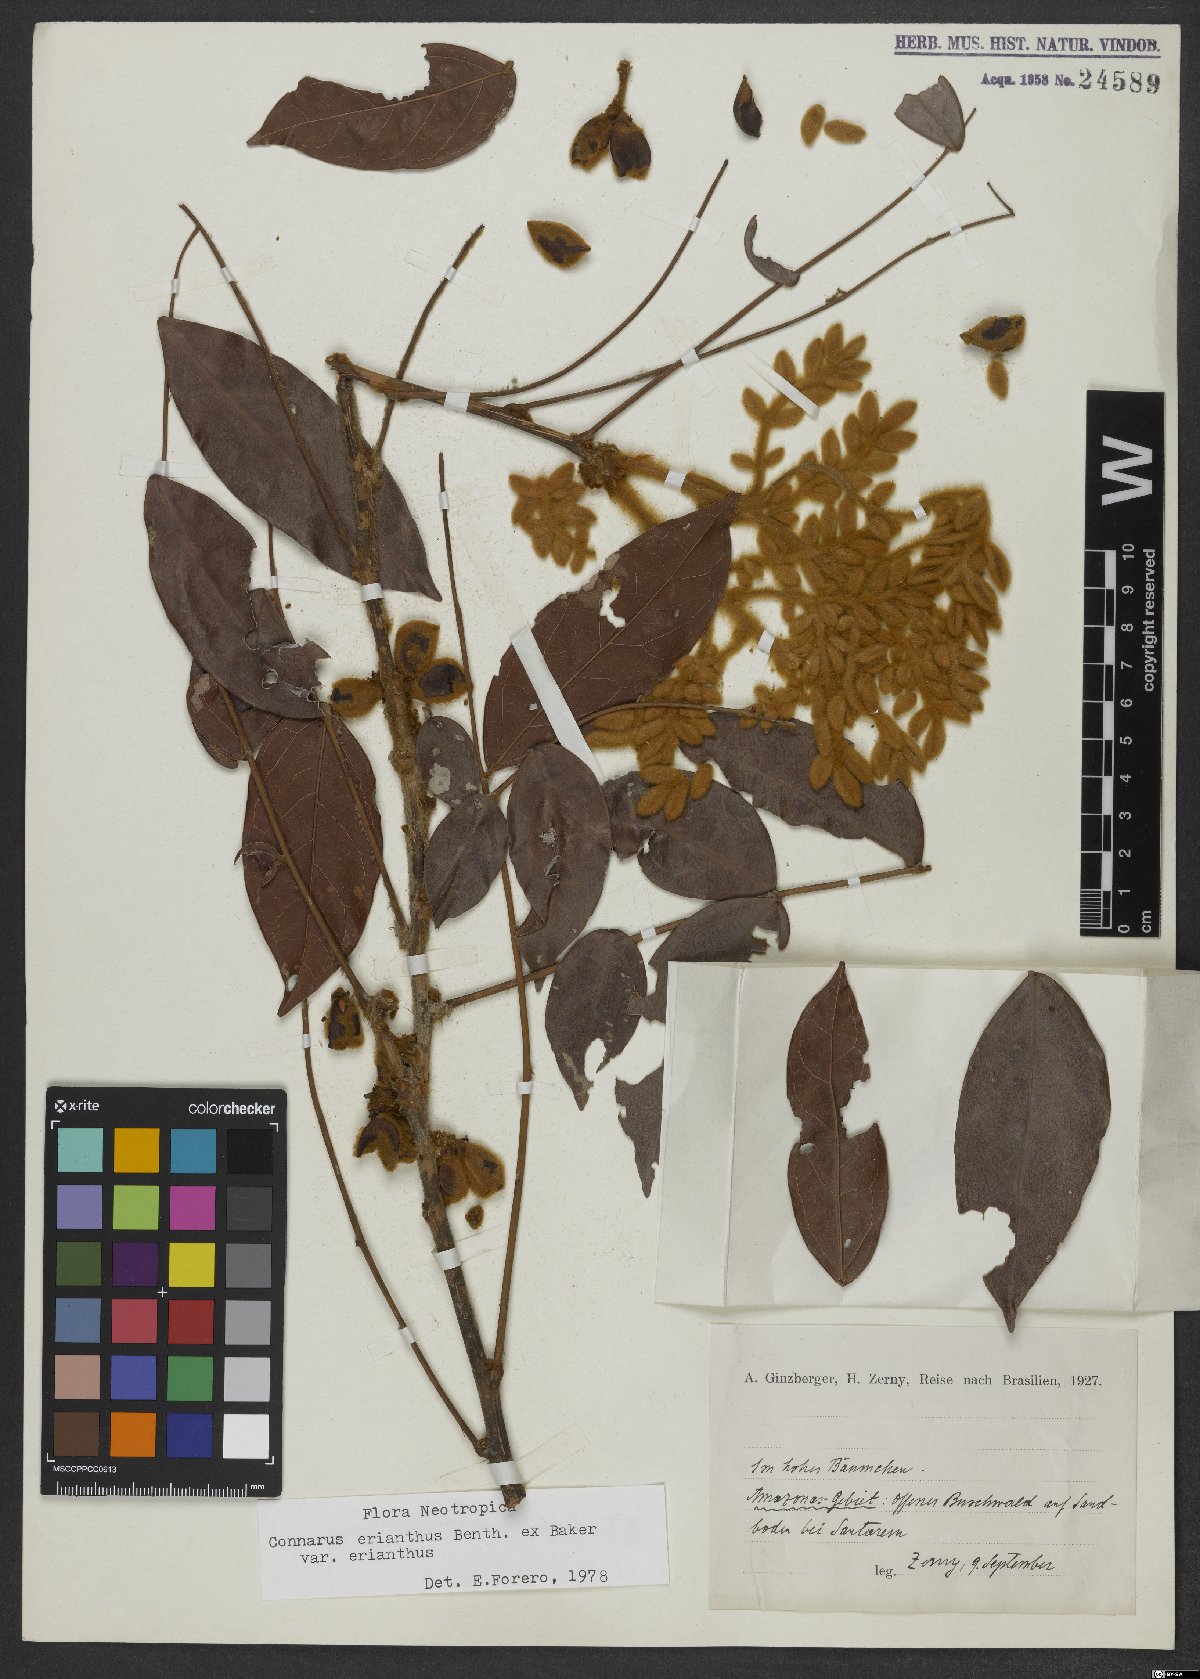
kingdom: Plantae
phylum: Tracheophyta
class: Magnoliopsida
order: Oxalidales
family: Connaraceae
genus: Connarus
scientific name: Connarus erianthus
